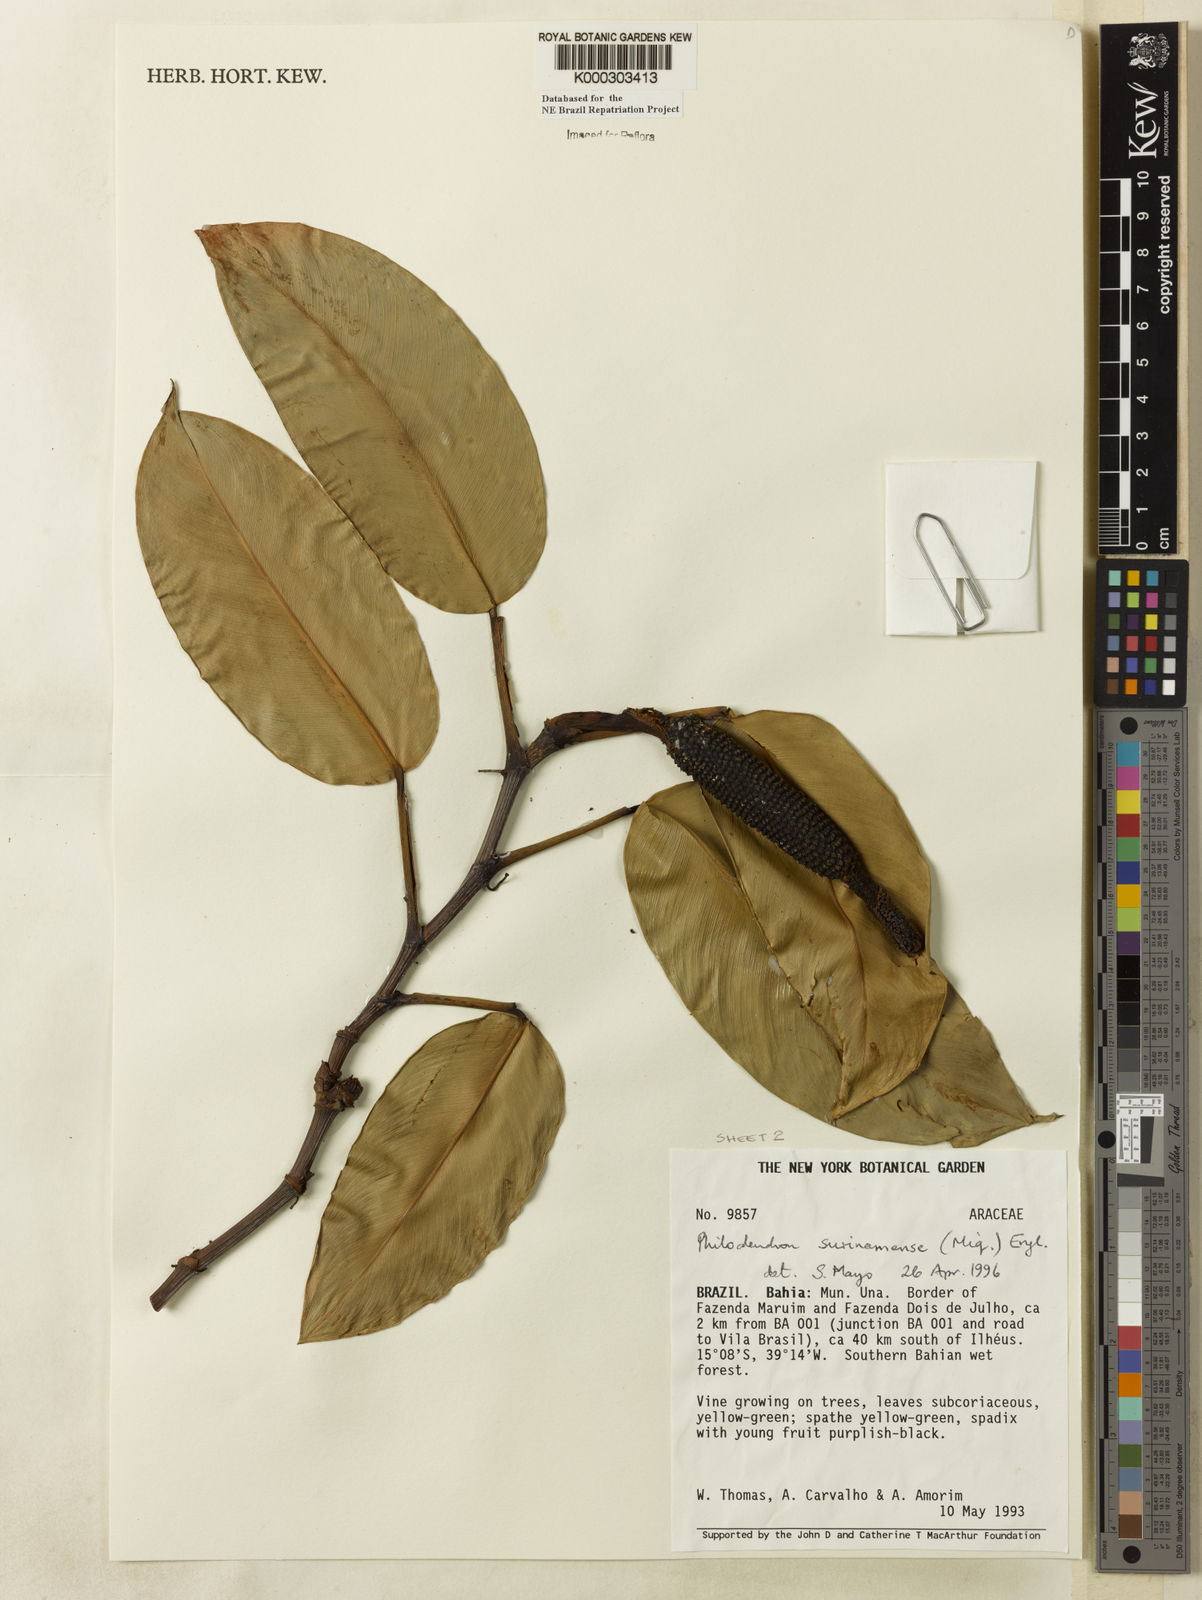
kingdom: Plantae
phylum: Tracheophyta
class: Liliopsida
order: Alismatales
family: Araceae
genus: Philodendron
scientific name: Philodendron surinamense
